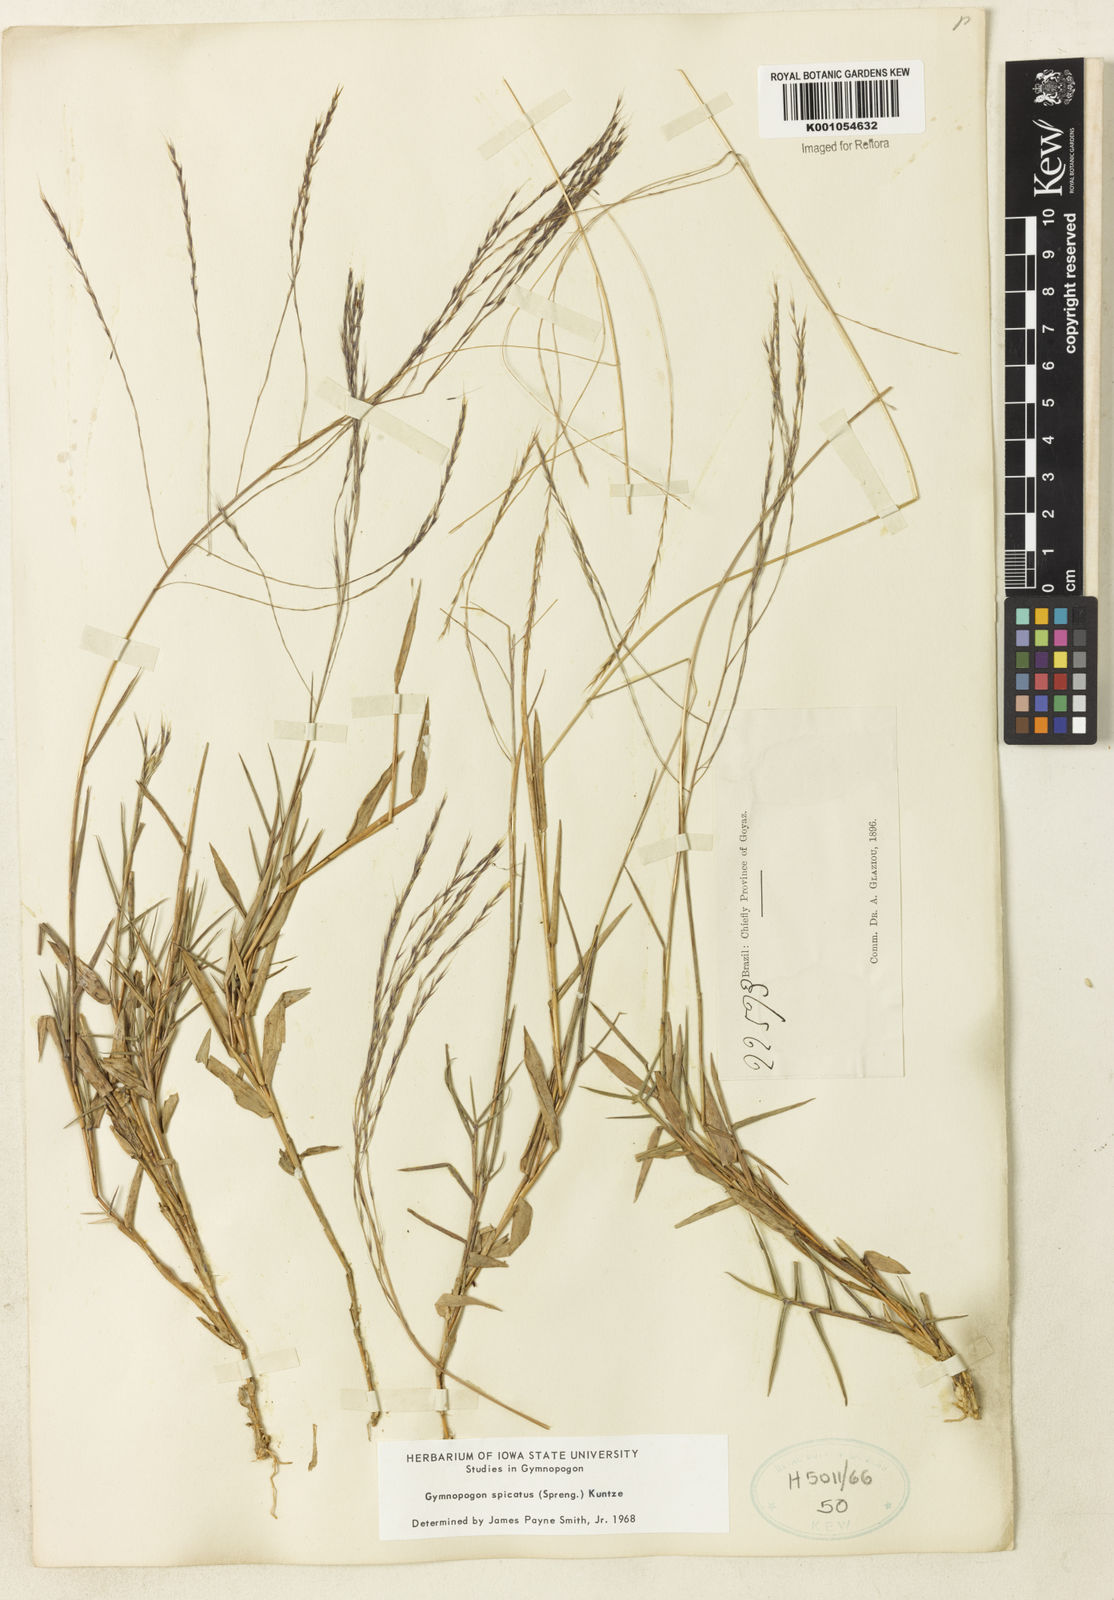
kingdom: Plantae
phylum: Tracheophyta
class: Liliopsida
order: Poales
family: Poaceae
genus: Gymnopogon
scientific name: Gymnopogon spicatus
